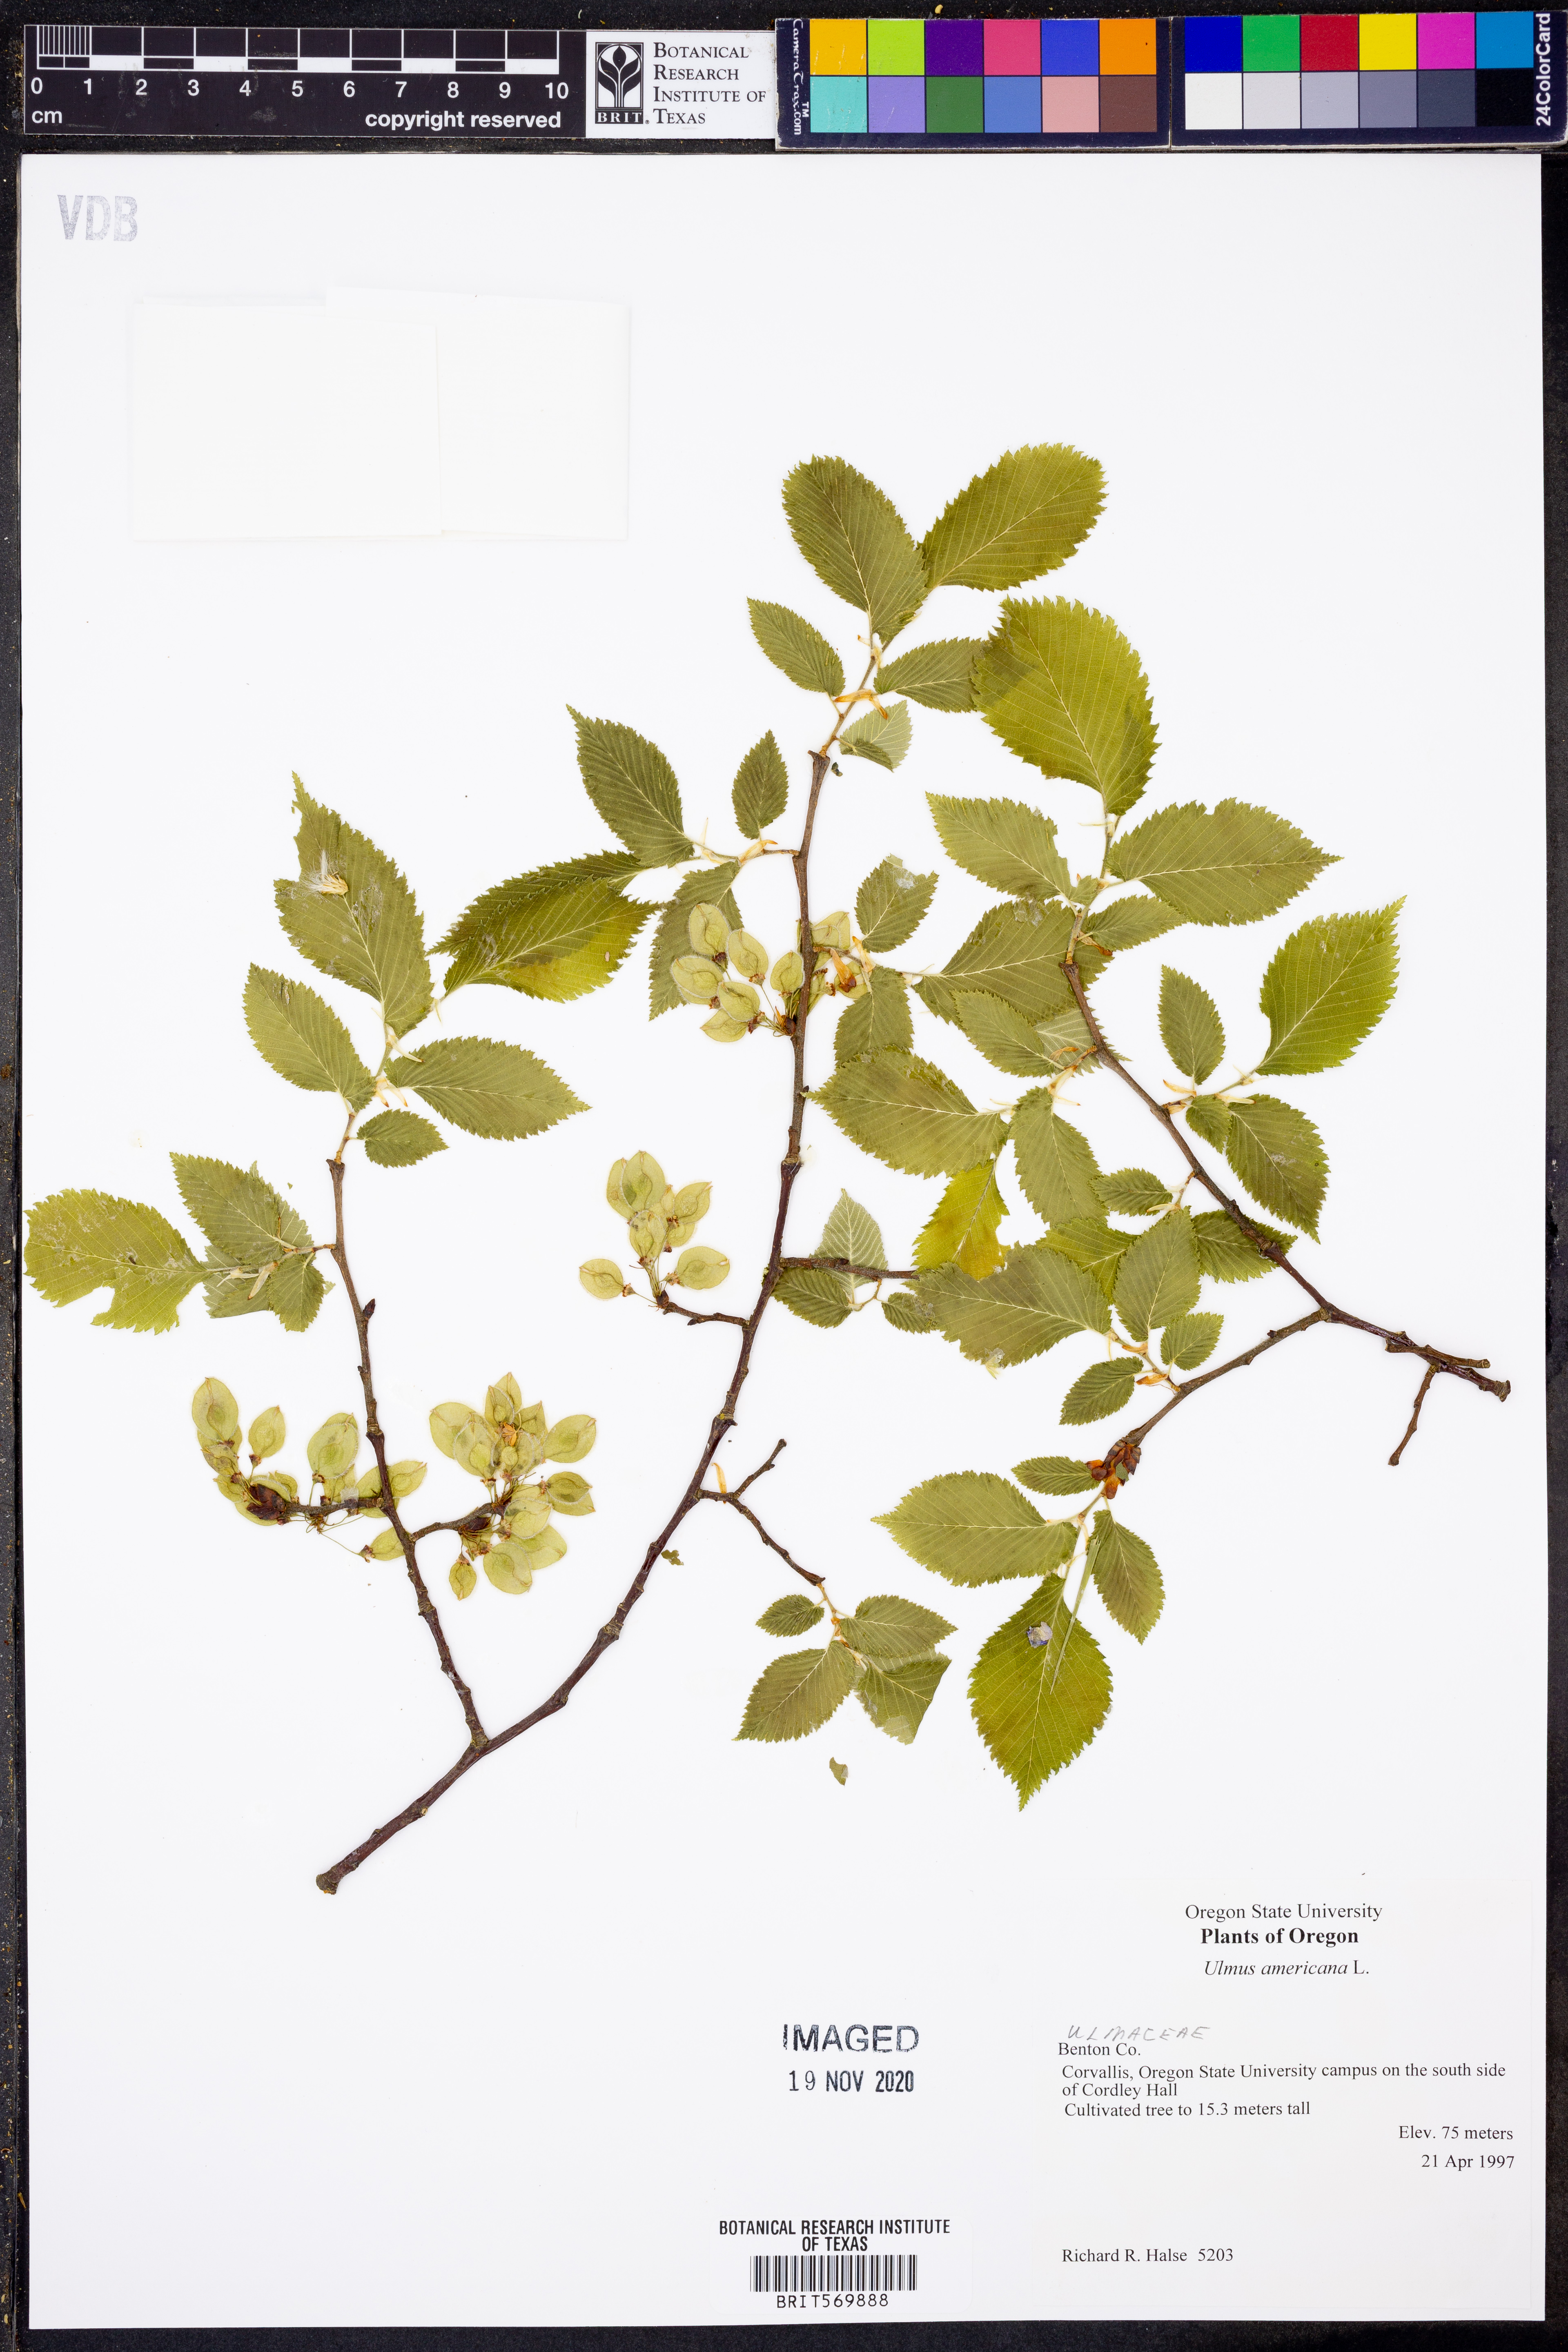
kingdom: Plantae
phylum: Tracheophyta
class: Magnoliopsida
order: Rosales
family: Ulmaceae
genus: Ulmus
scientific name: Ulmus americana
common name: American elm
